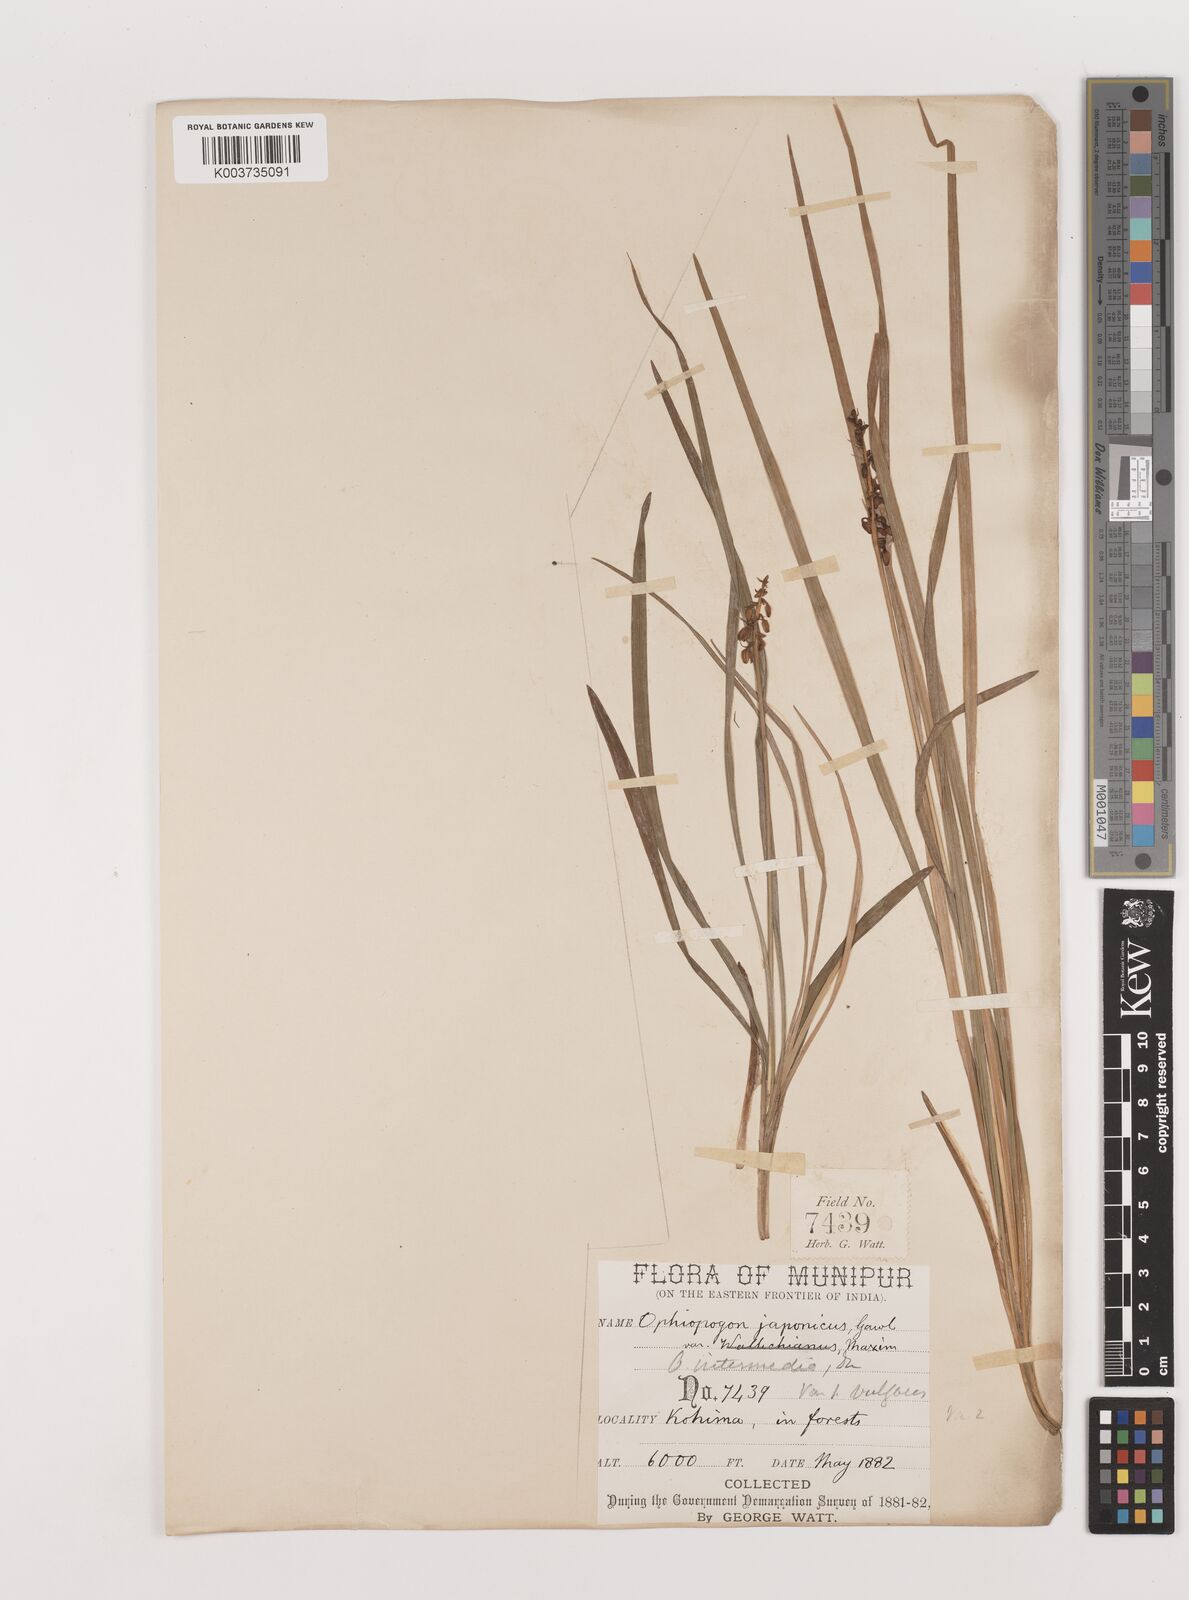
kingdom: Plantae
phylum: Tracheophyta
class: Liliopsida
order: Asparagales
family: Asparagaceae
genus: Ophiopogon
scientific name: Ophiopogon
